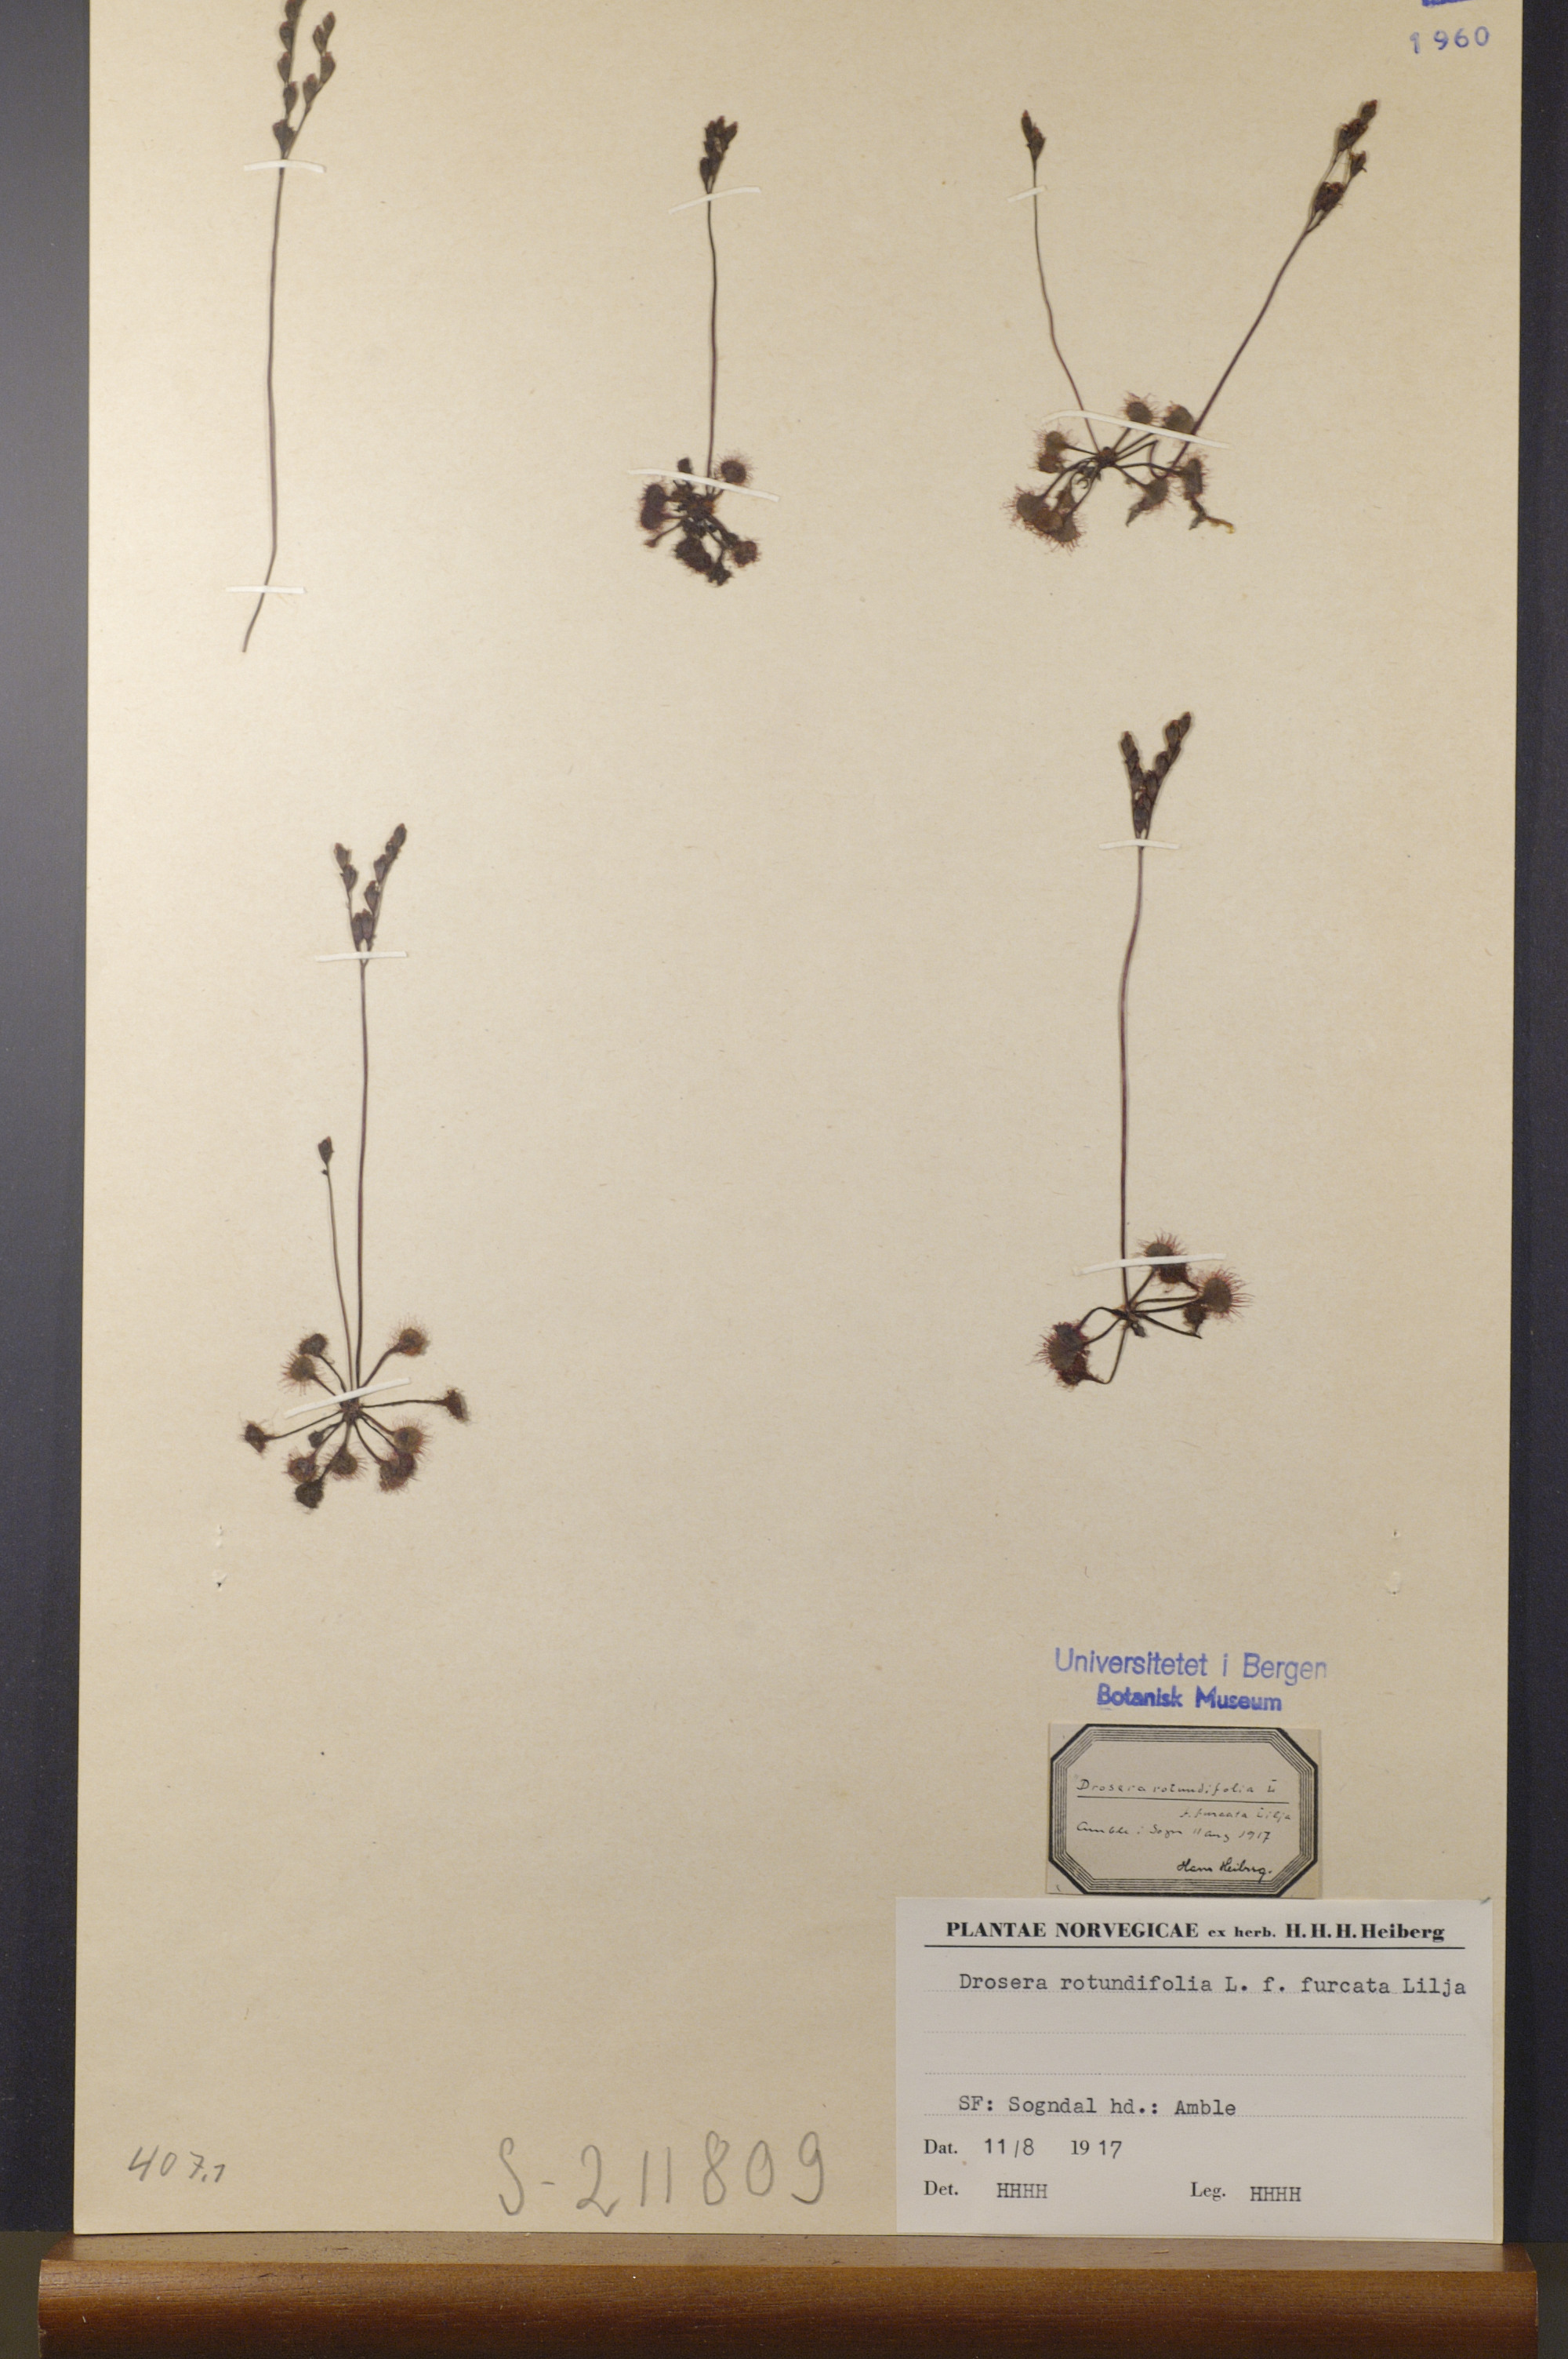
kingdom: Plantae
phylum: Tracheophyta
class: Magnoliopsida
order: Caryophyllales
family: Droseraceae
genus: Drosera
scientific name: Drosera rotundifolia
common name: Round-leaved sundew
